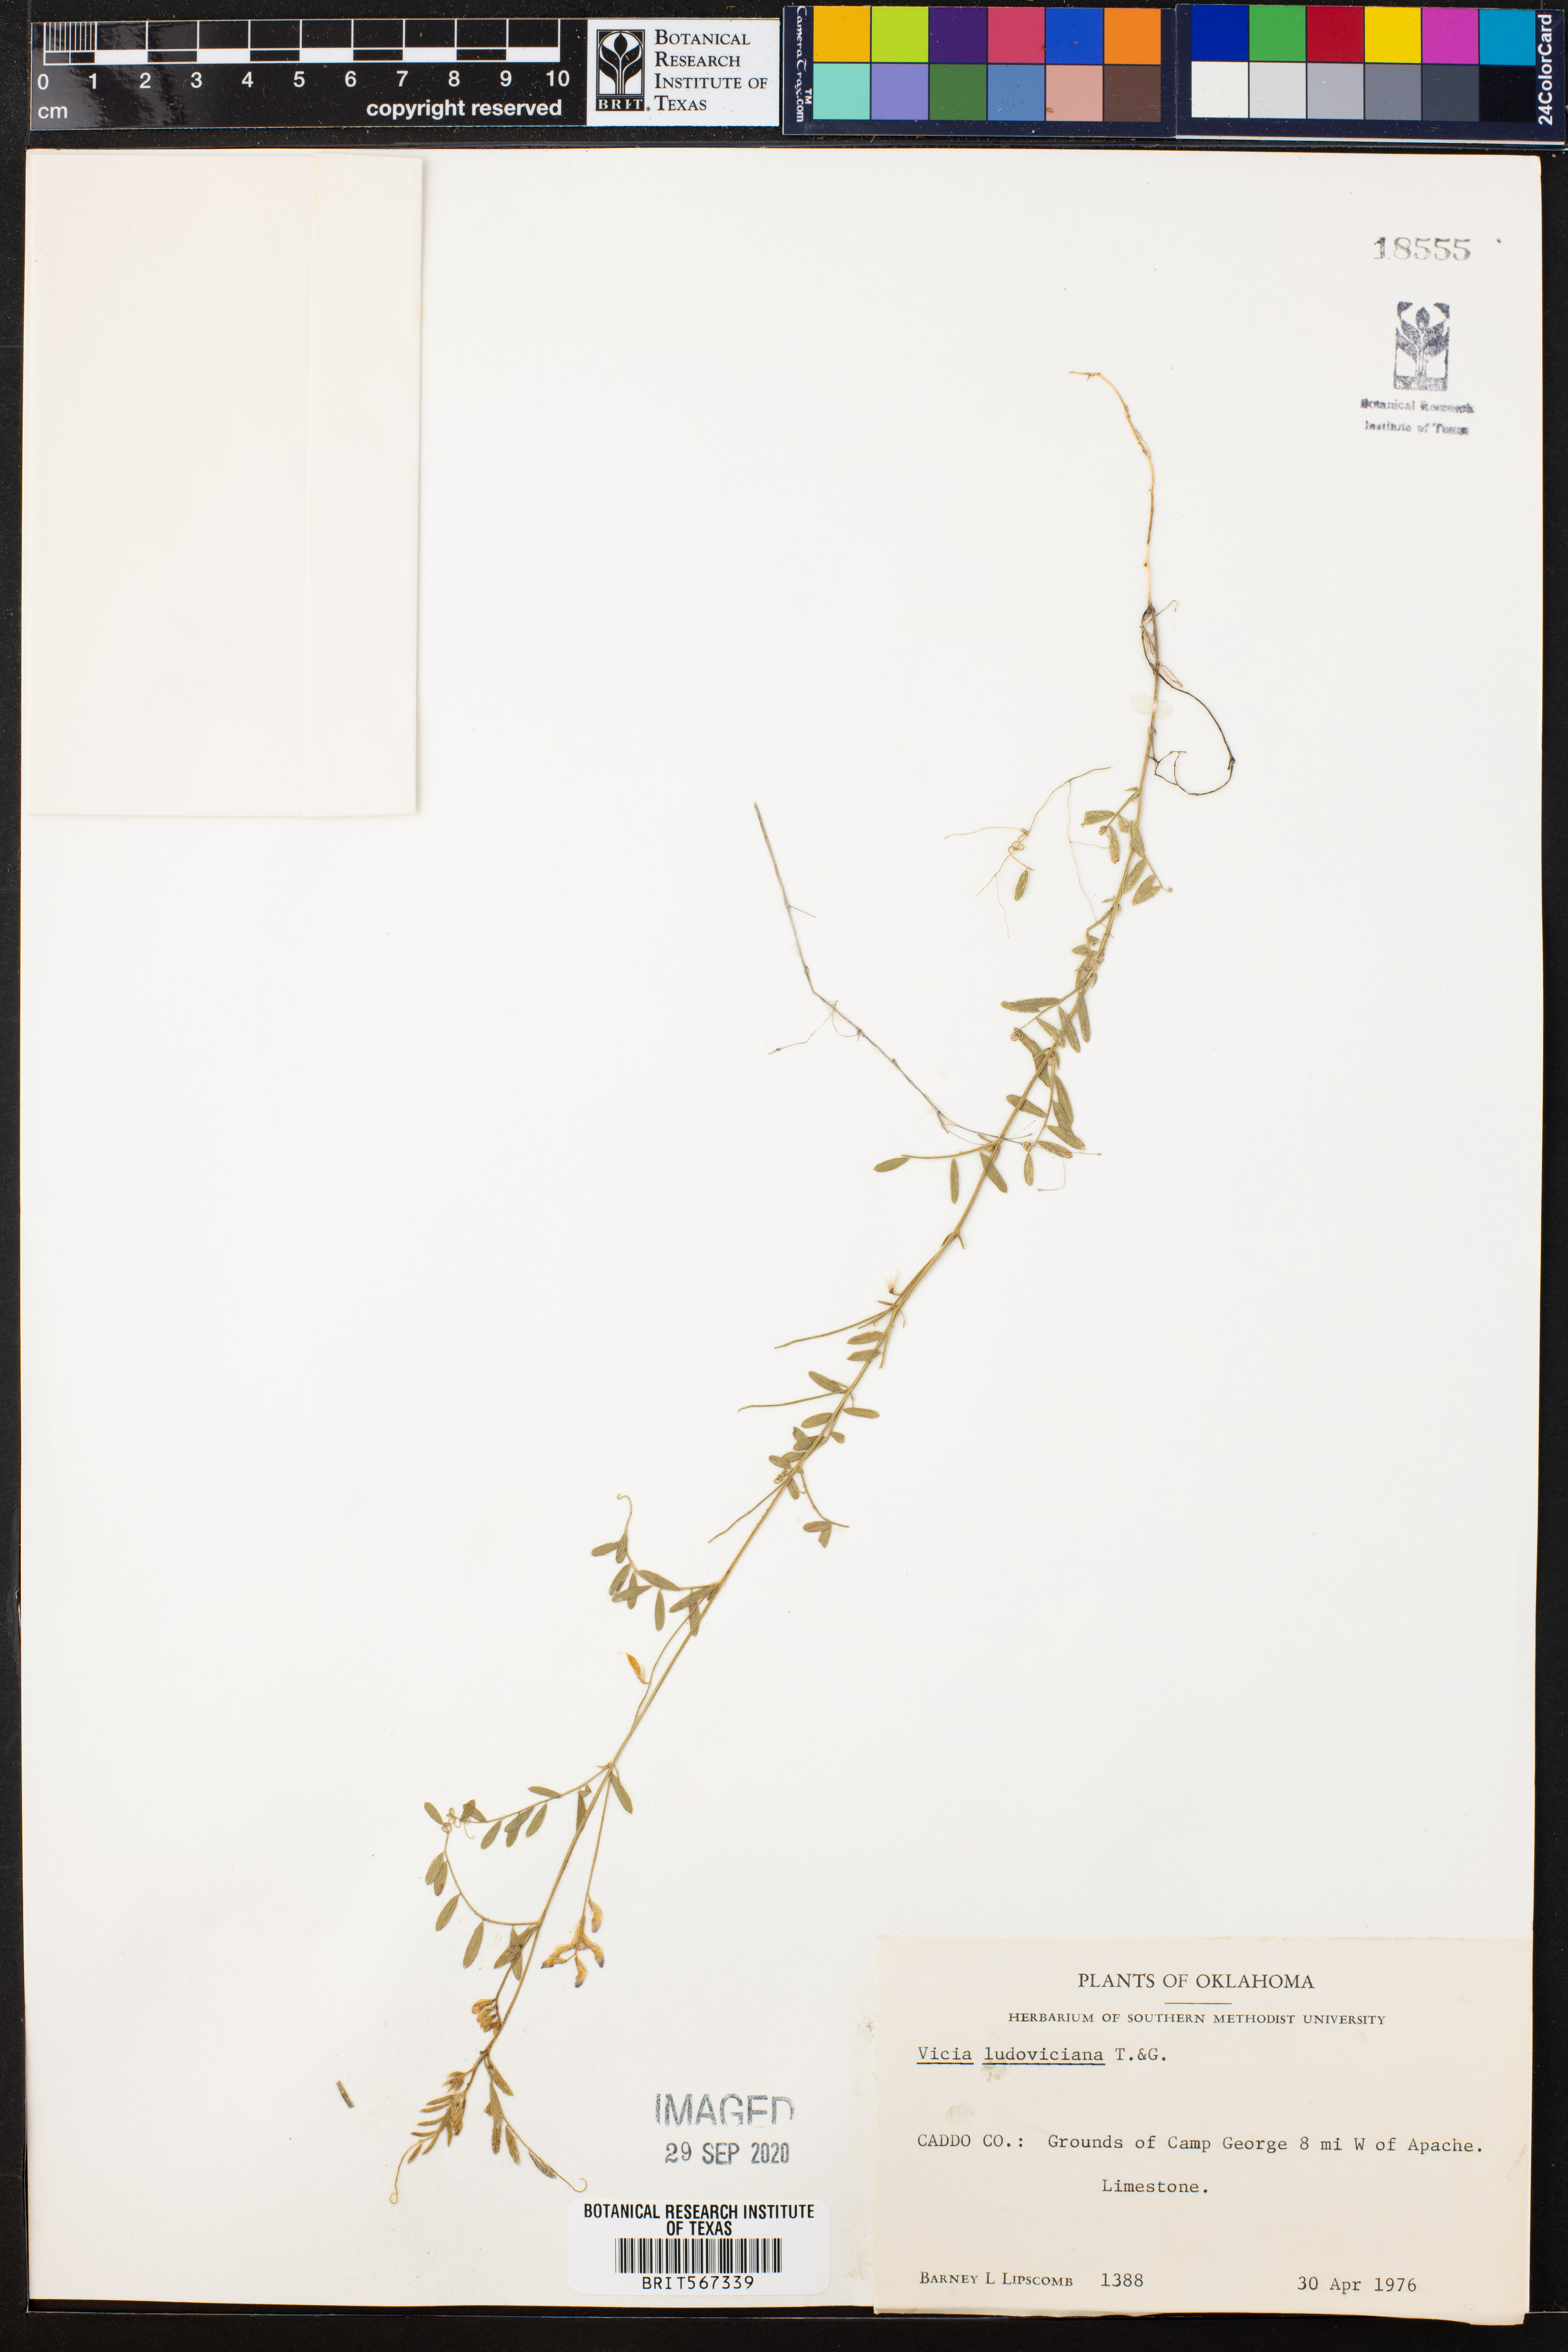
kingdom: Plantae
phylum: Tracheophyta
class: Magnoliopsida
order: Fabales
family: Fabaceae
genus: Vicia
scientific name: Vicia ludoviciana
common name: Louisiana vetch
